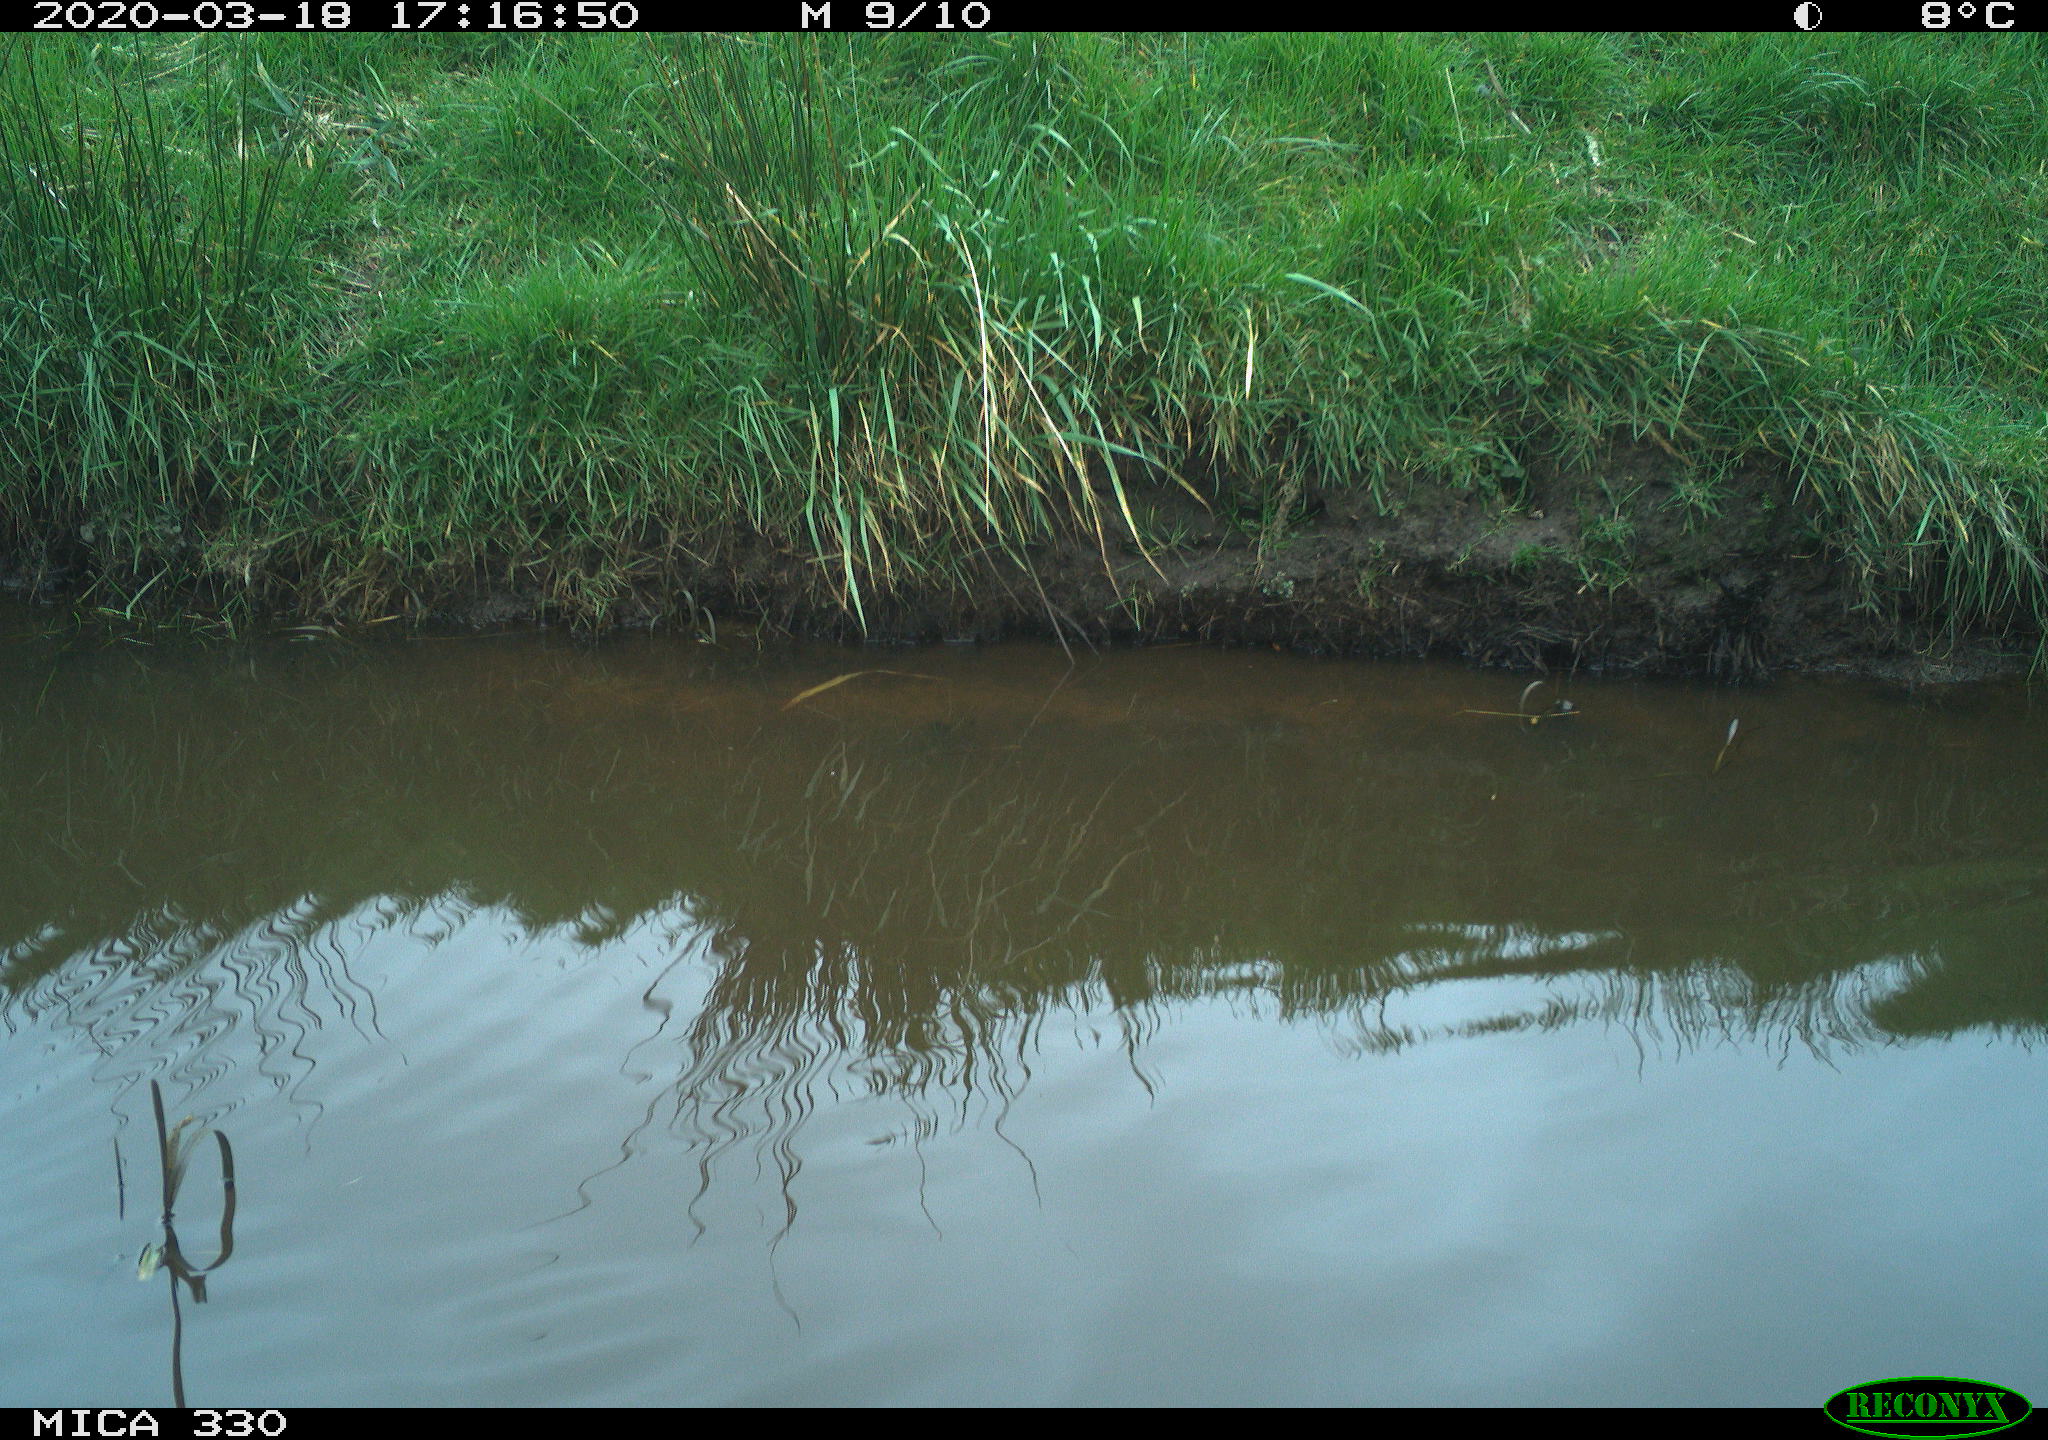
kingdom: Animalia
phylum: Chordata
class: Aves
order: Gruiformes
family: Rallidae
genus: Gallinula
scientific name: Gallinula chloropus
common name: Common moorhen
